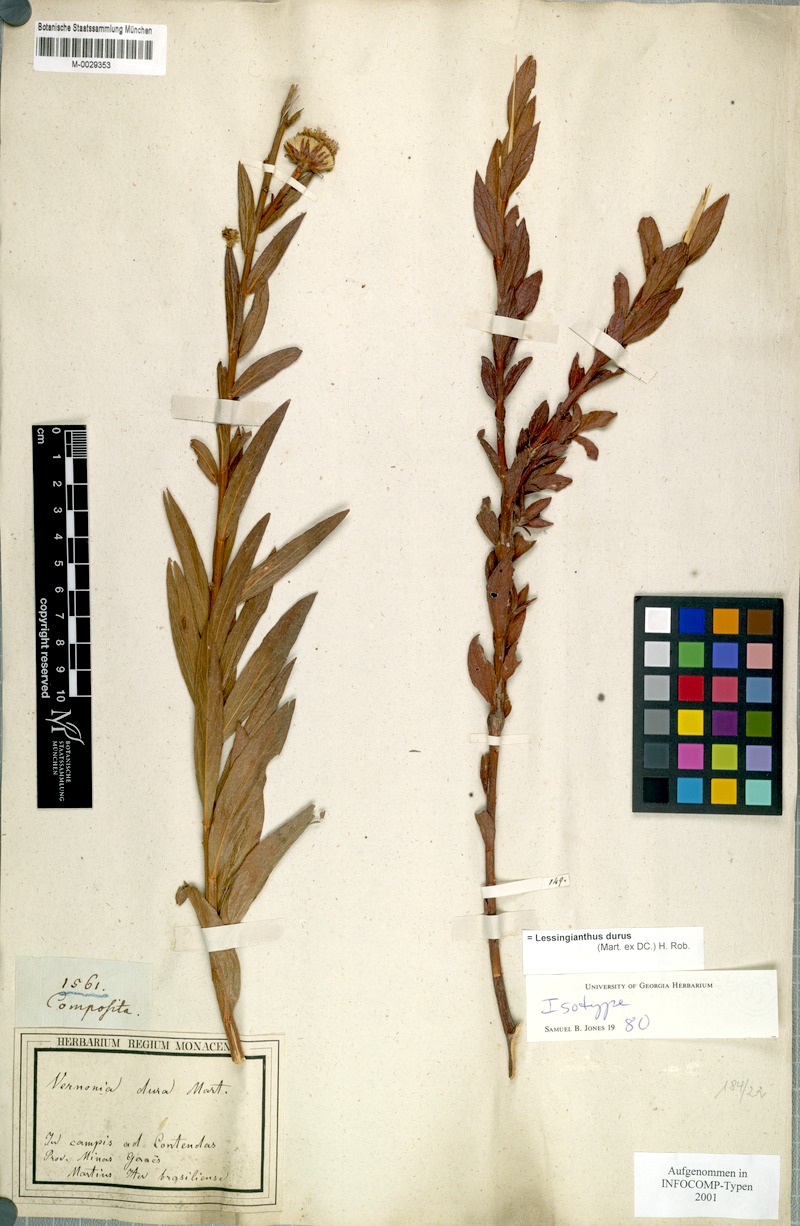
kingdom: Plantae
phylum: Tracheophyta
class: Magnoliopsida
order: Asterales
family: Asteraceae
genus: Lessingianthus
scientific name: Lessingianthus durus
